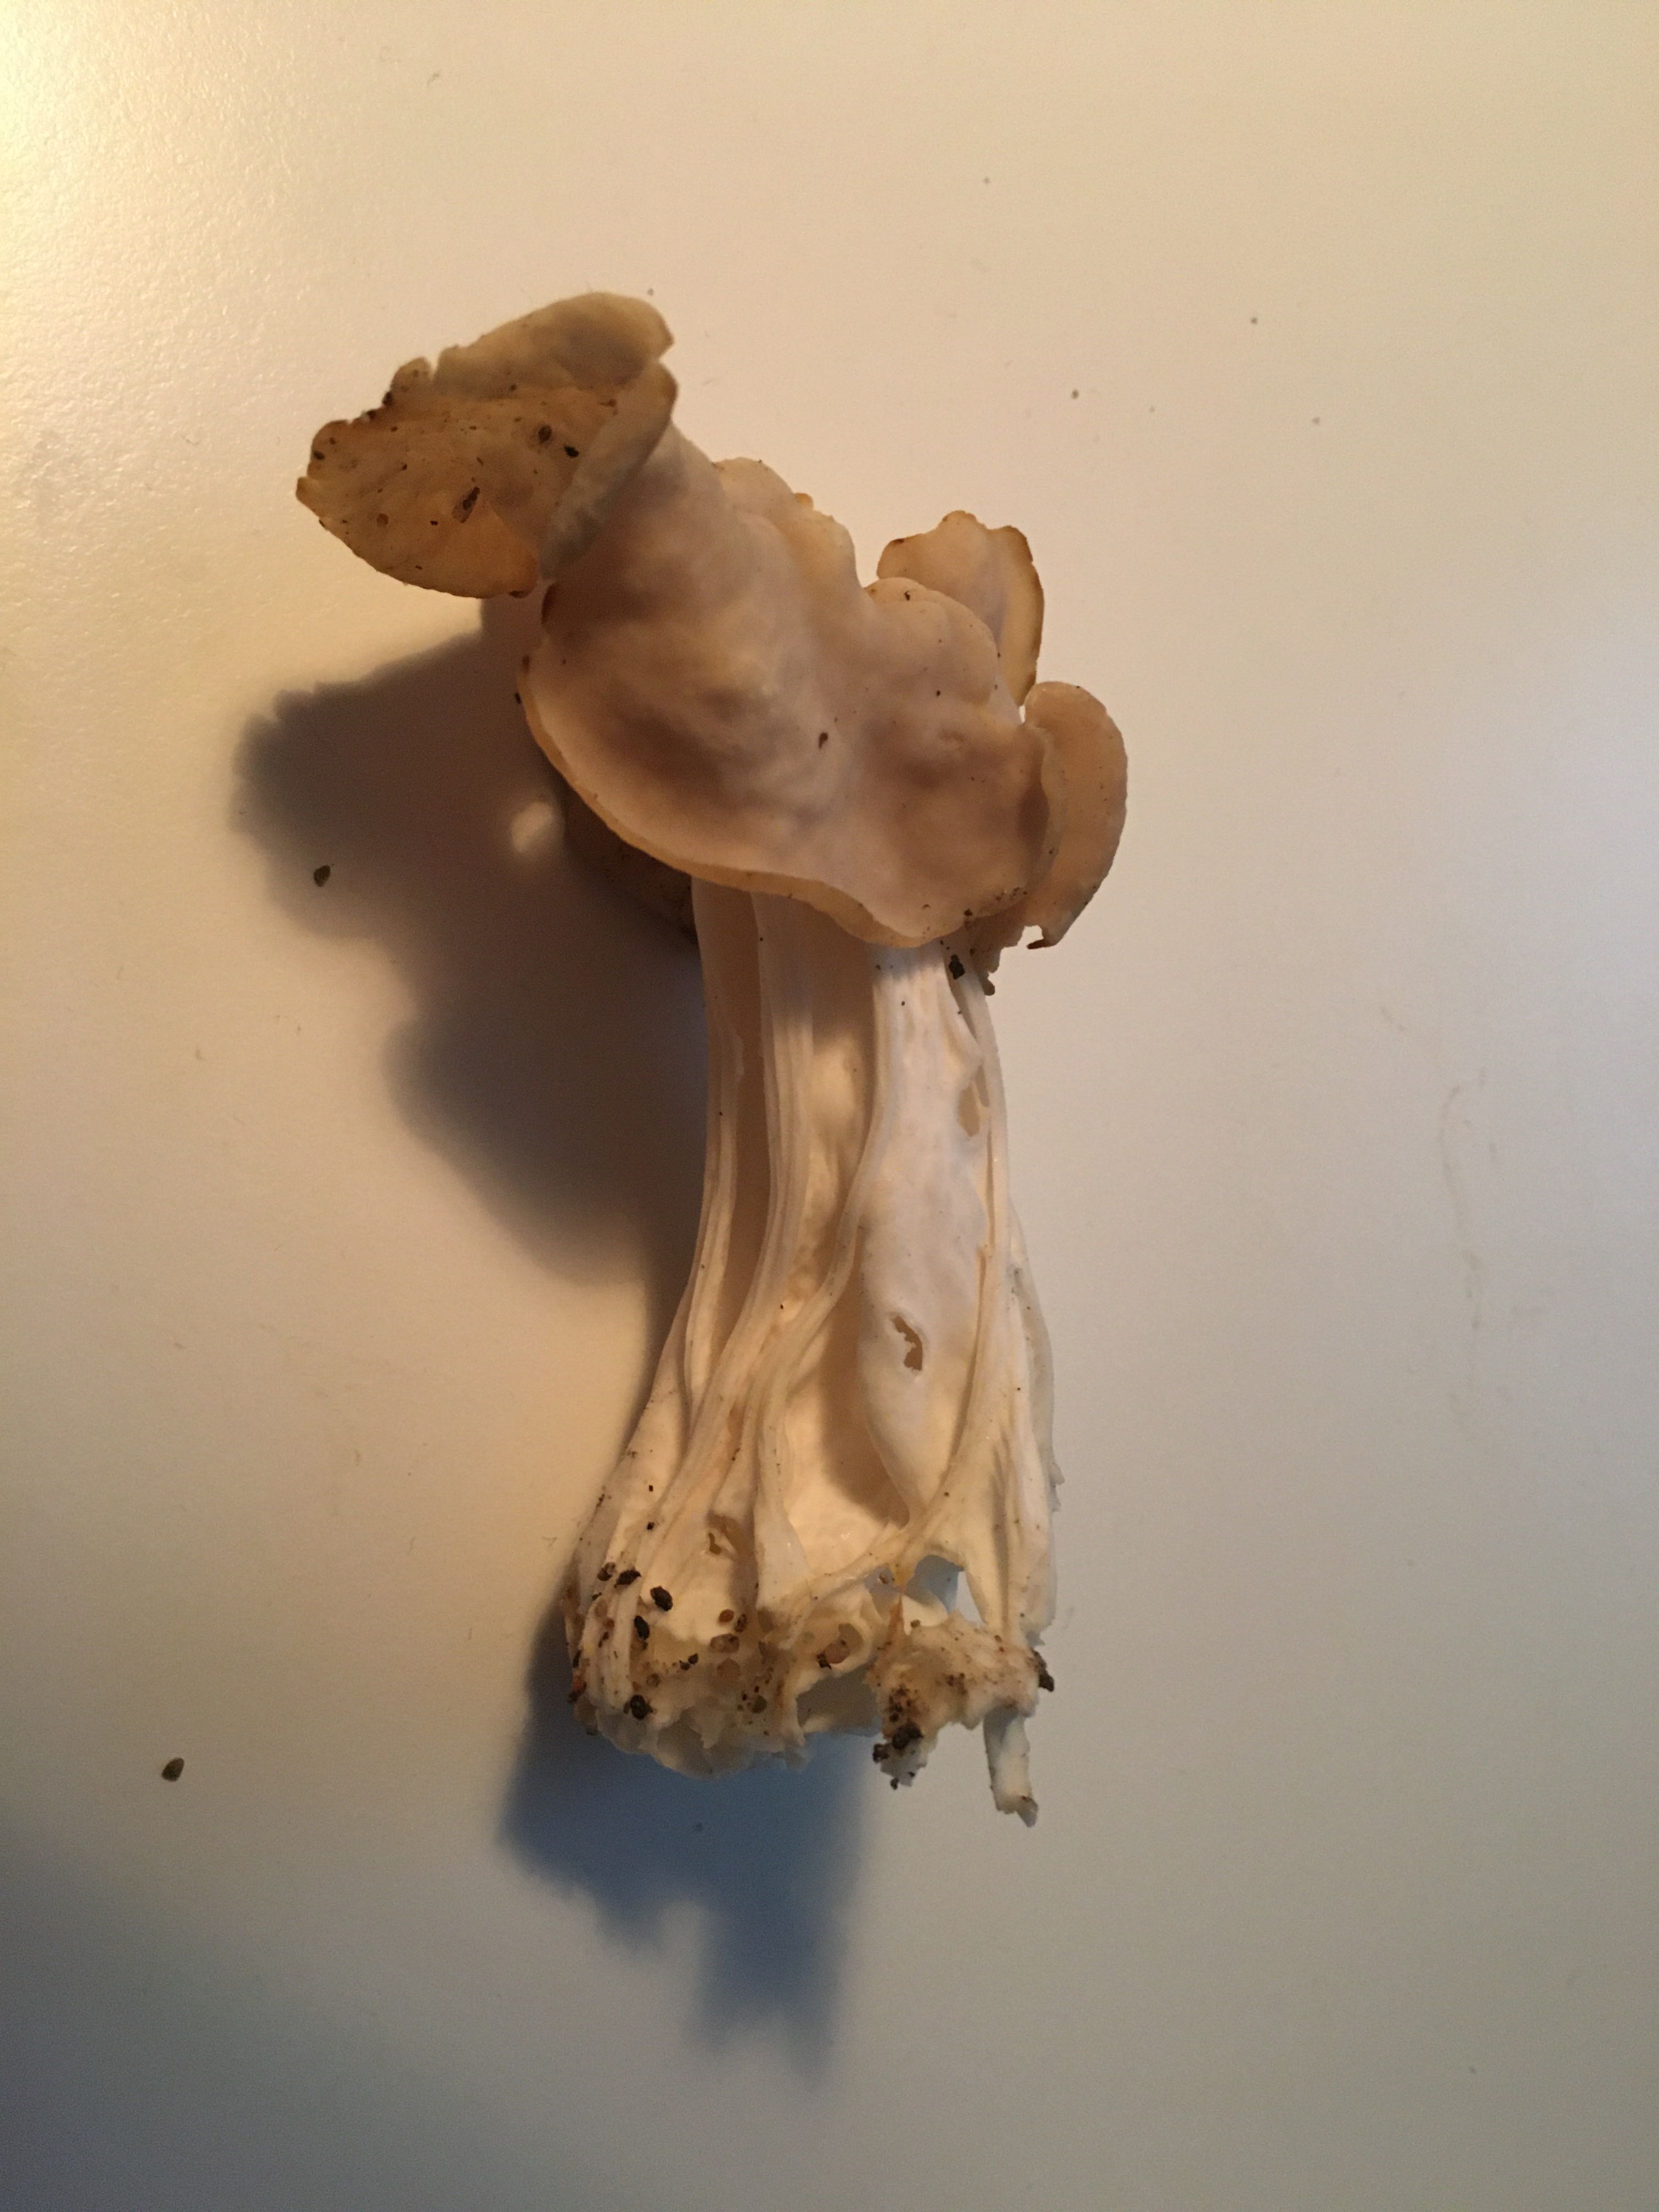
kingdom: Fungi
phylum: Ascomycota
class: Pezizomycetes
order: Pezizales
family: Helvellaceae
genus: Helvella
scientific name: Helvella crispa
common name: kruset foldhat
